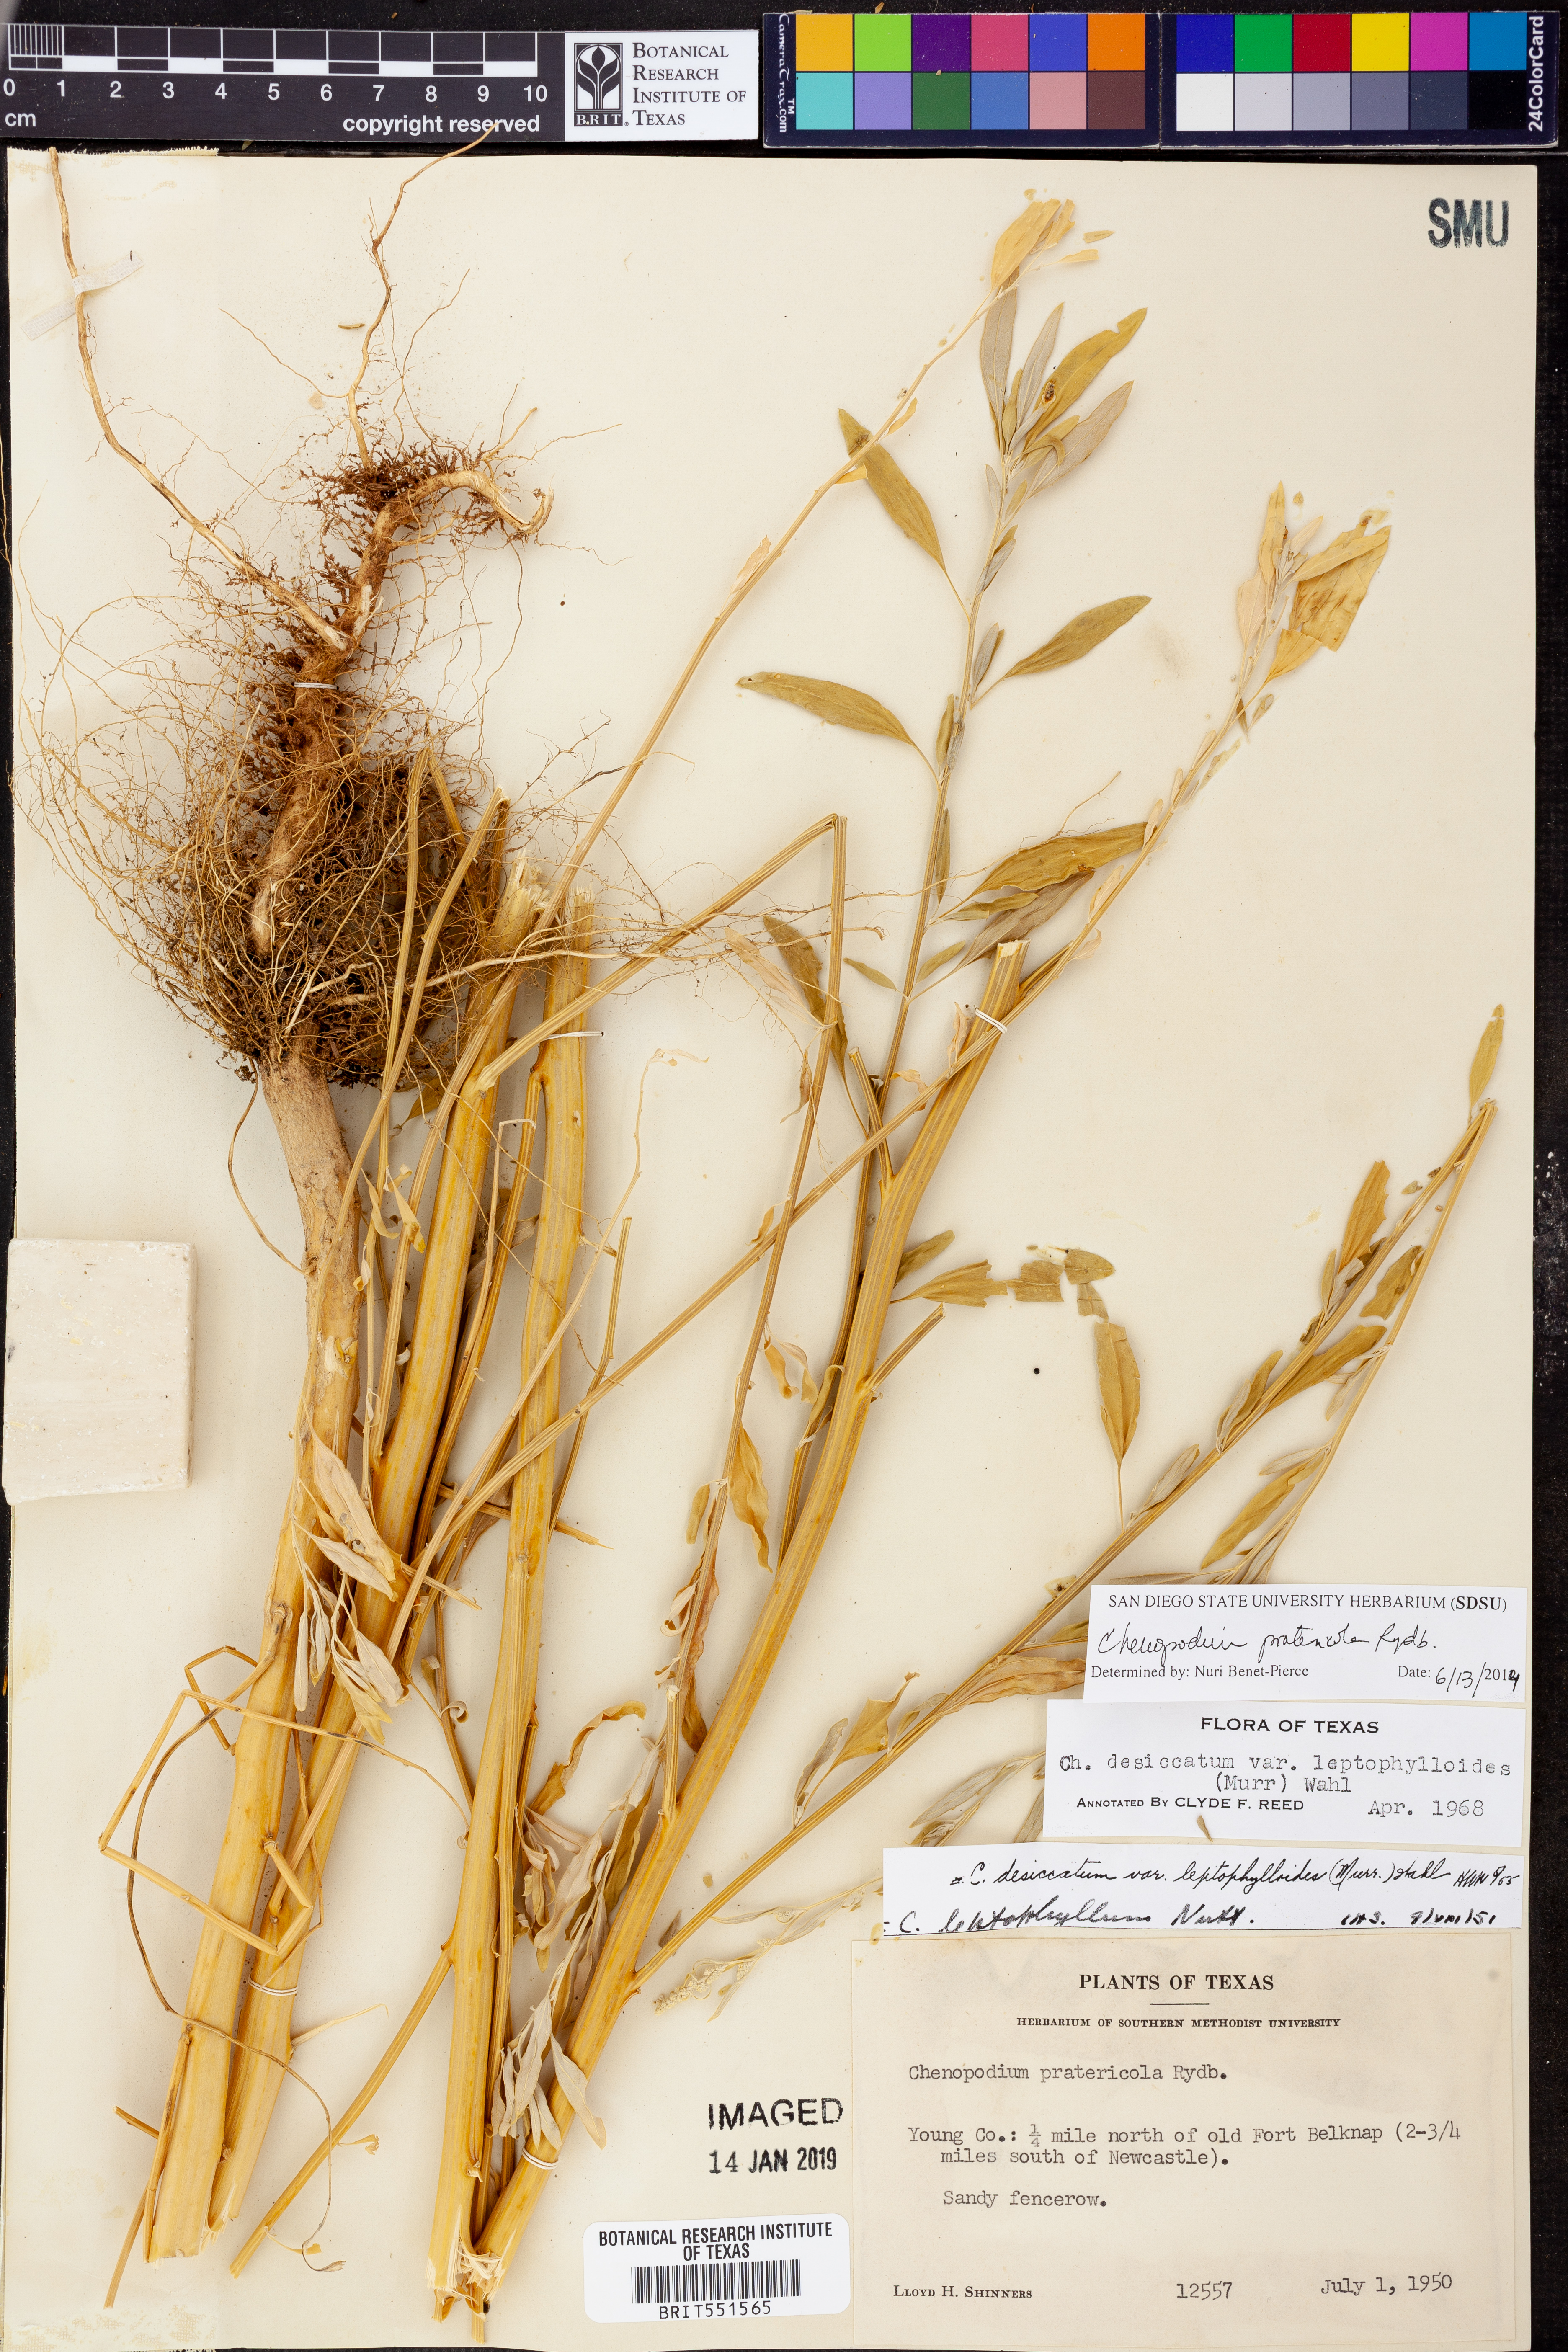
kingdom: Plantae
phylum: Tracheophyta
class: Magnoliopsida
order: Caryophyllales
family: Amaranthaceae
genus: Chenopodium
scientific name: Chenopodium pratericola
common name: Desert goosefoot
